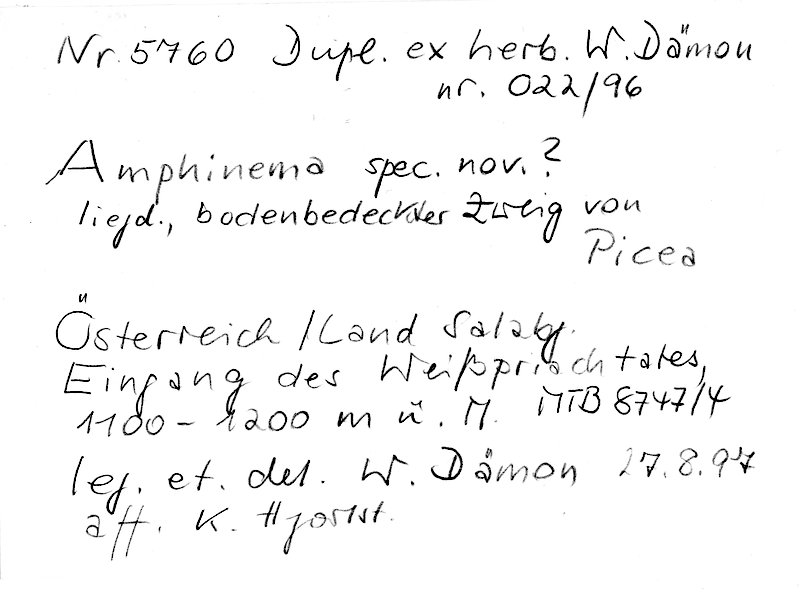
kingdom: Fungi
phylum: Basidiomycota
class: Agaricomycetes
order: Atheliales
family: Atheliaceae
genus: Amphinema
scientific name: Amphinema
